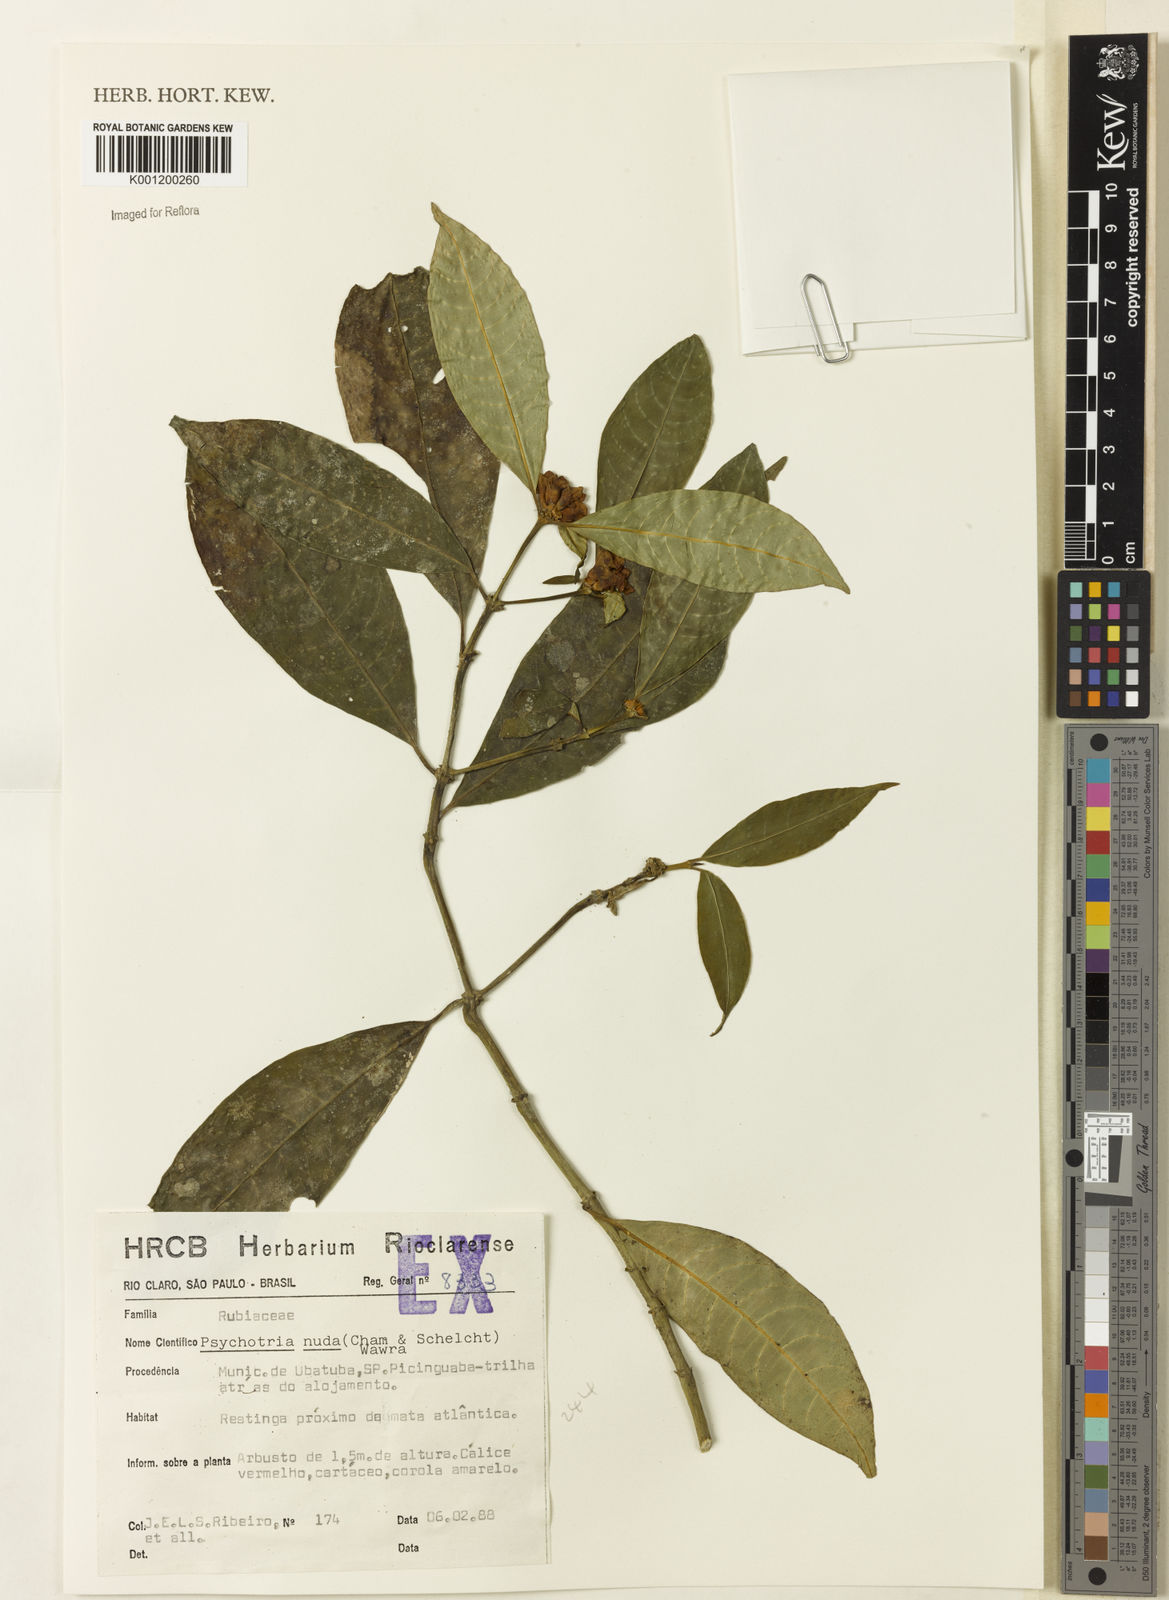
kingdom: Plantae
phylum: Tracheophyta
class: Magnoliopsida
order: Gentianales
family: Rubiaceae
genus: Psychotria
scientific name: Psychotria nuda
